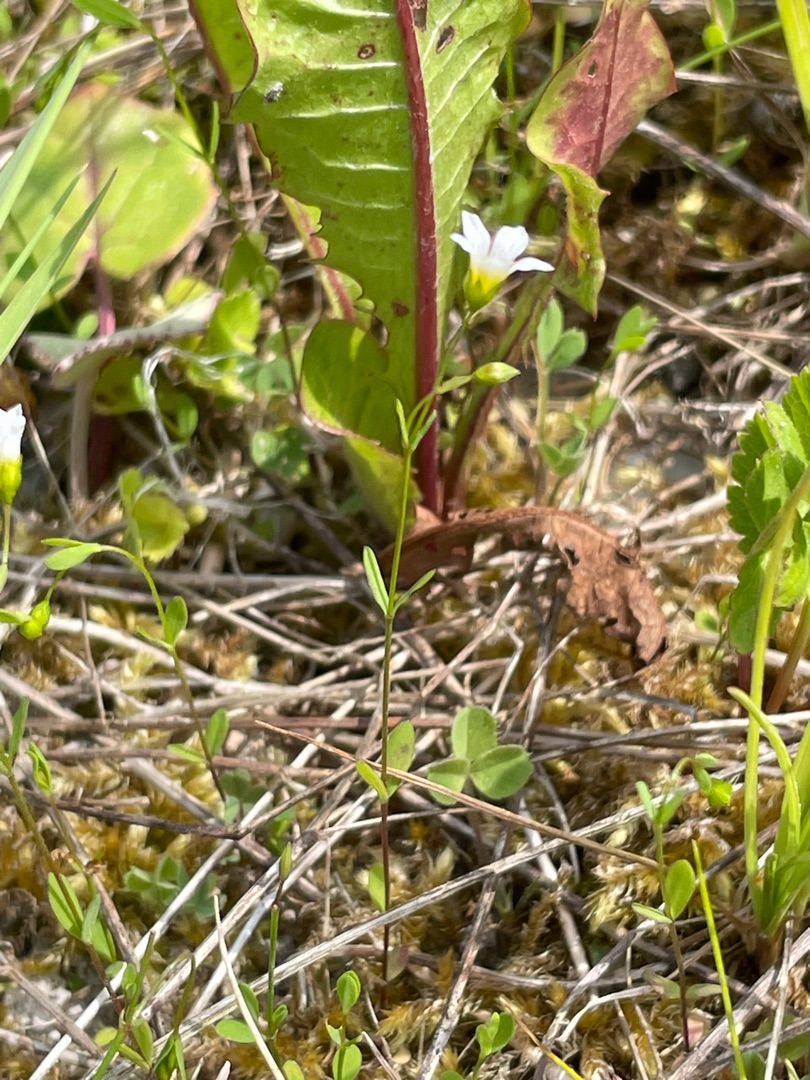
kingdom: Plantae
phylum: Tracheophyta
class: Magnoliopsida
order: Malpighiales
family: Linaceae
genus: Linum
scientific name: Linum catharticum
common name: Vild hør
